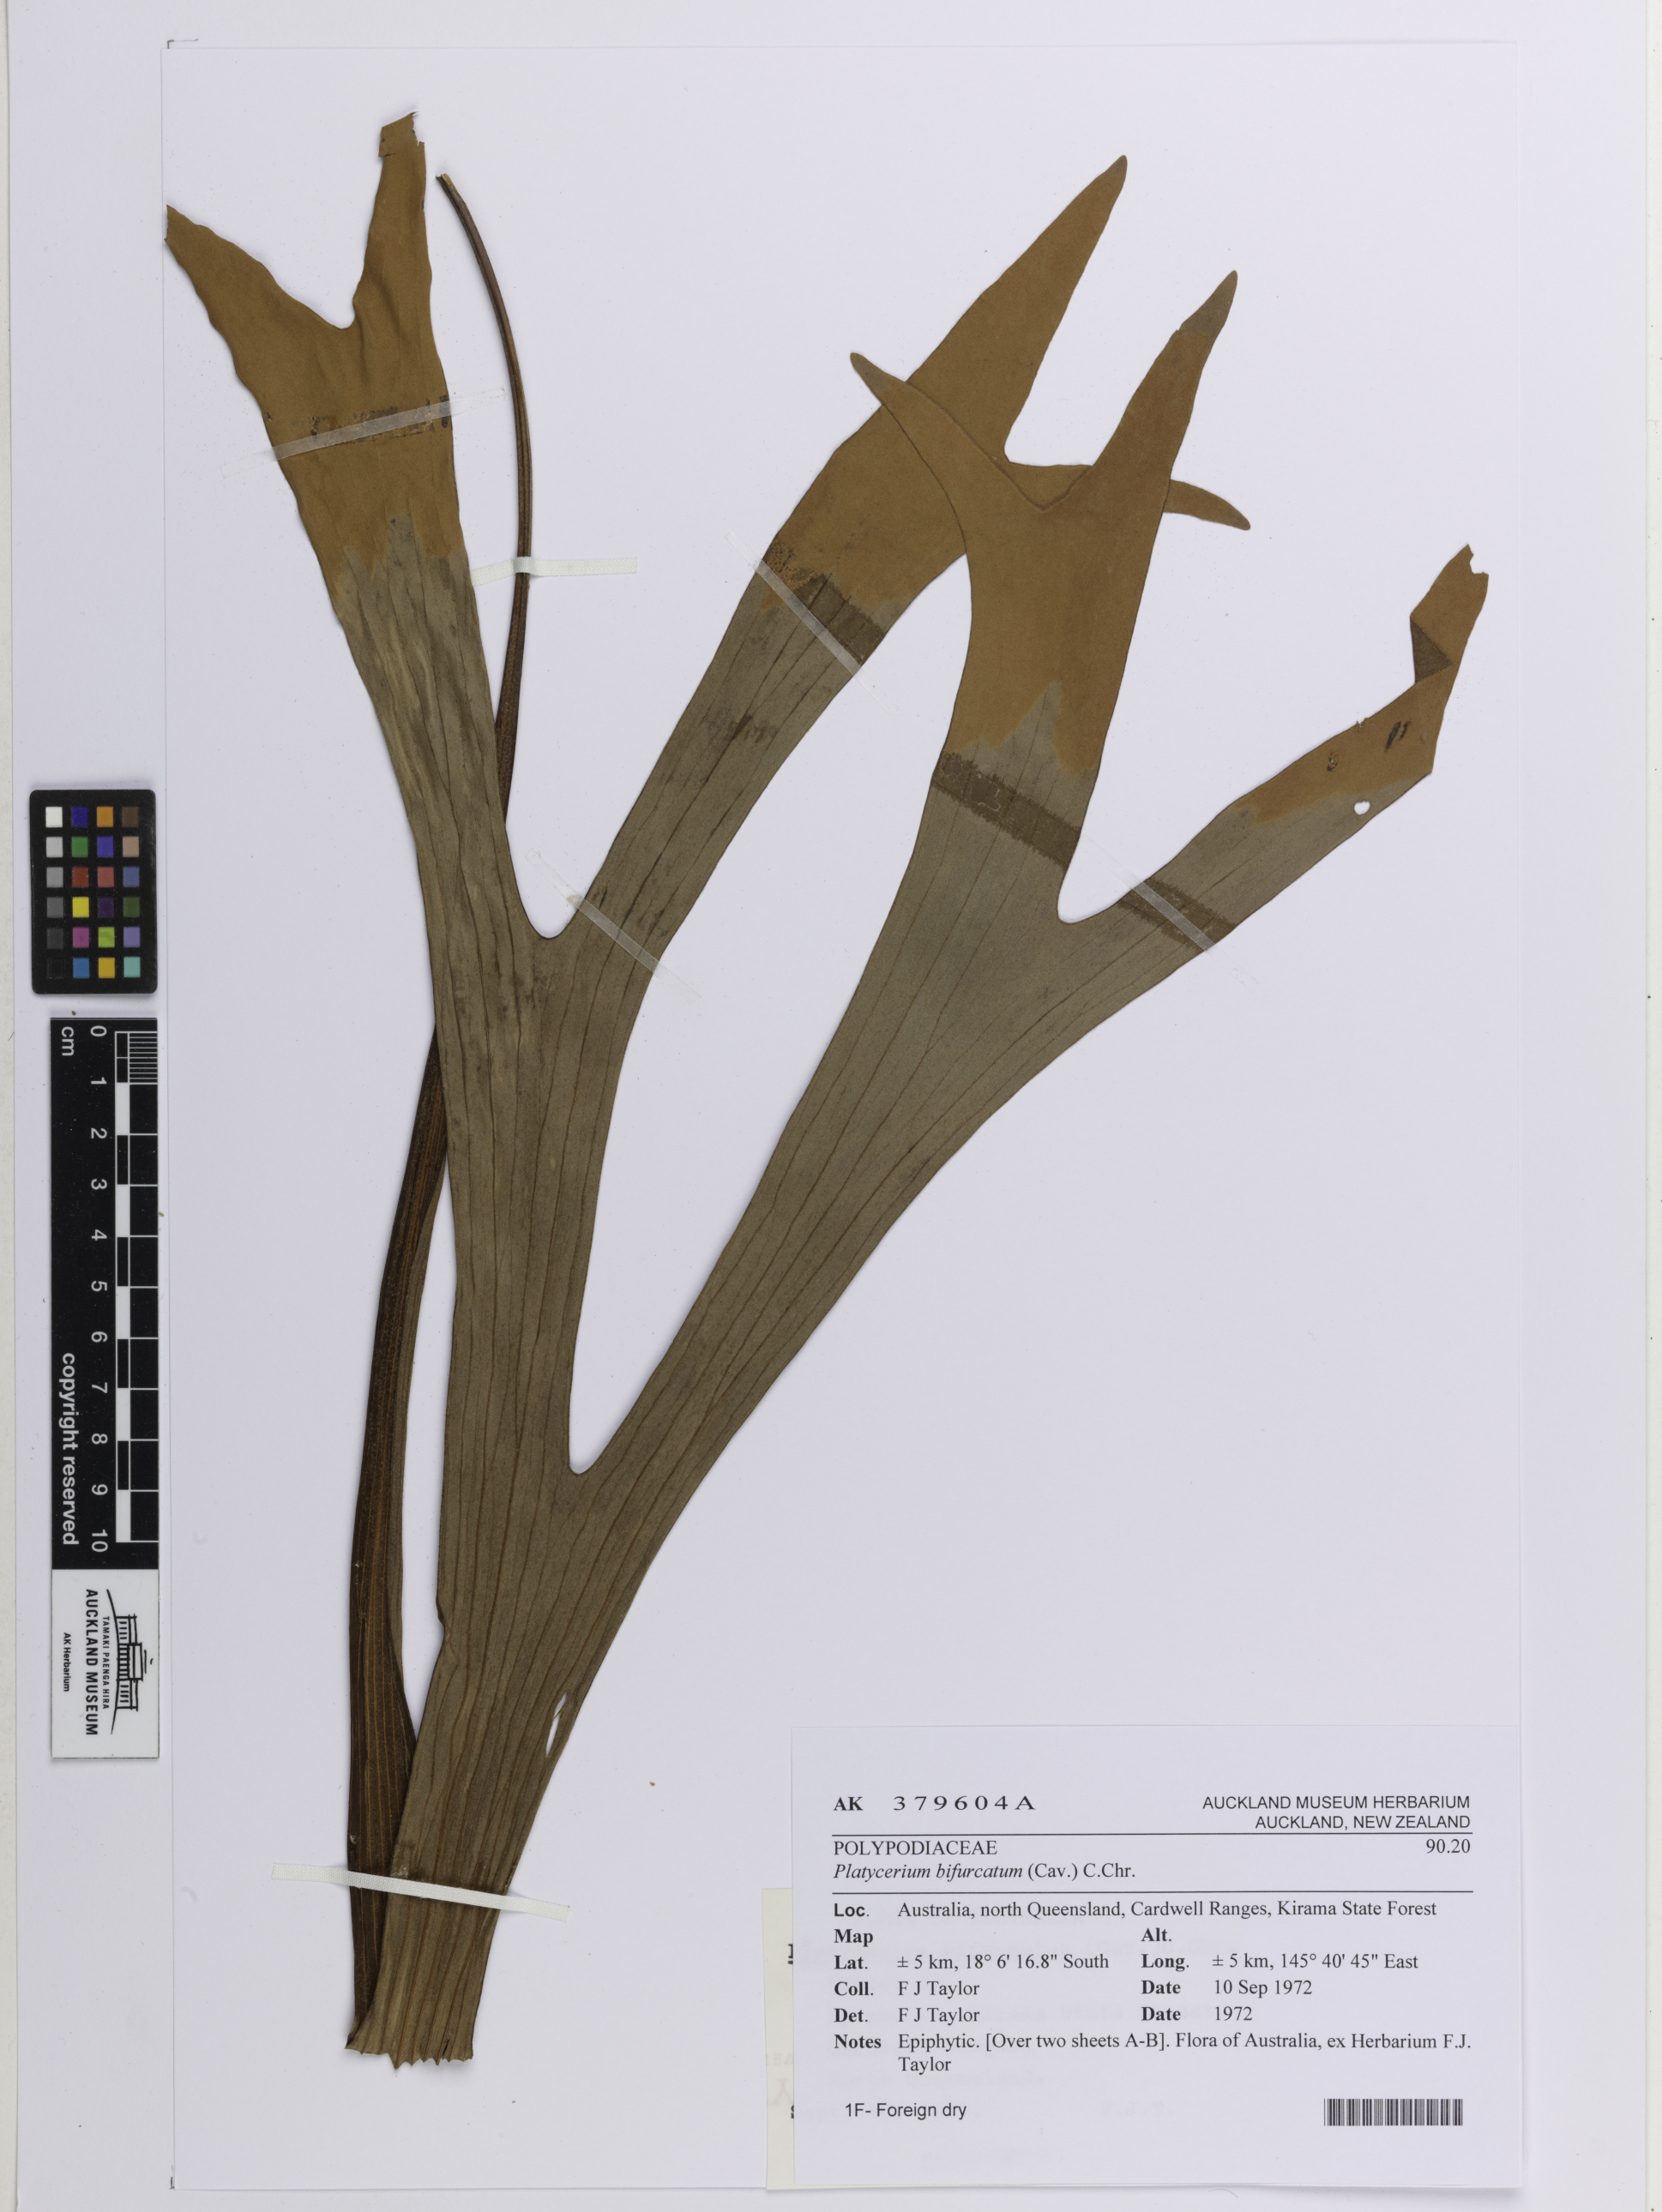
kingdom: Plantae
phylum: Tracheophyta
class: Polypodiopsida
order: Polypodiales
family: Polypodiaceae
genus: Platycerium
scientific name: Platycerium bifurcatum
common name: Elkhorn fern
